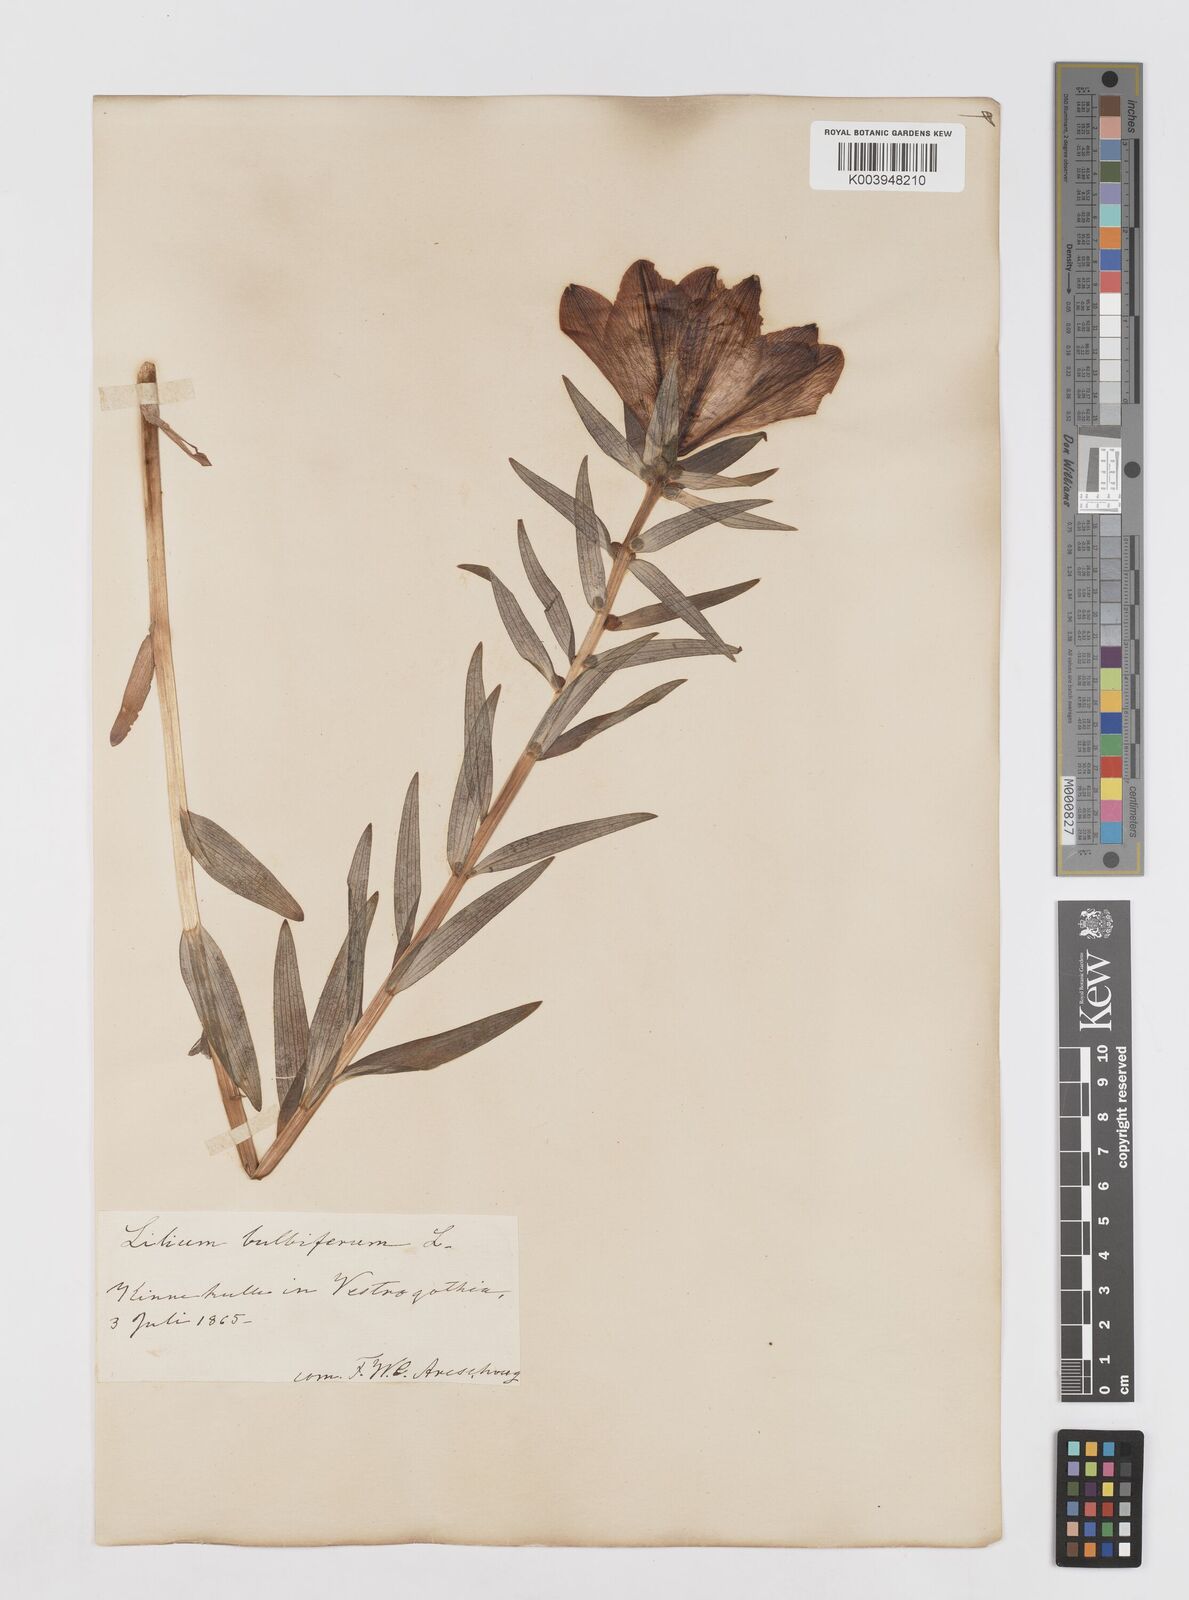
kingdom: Plantae
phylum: Tracheophyta
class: Liliopsida
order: Liliales
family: Liliaceae
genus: Lilium
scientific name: Lilium bulbiferum
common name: Orange lily
